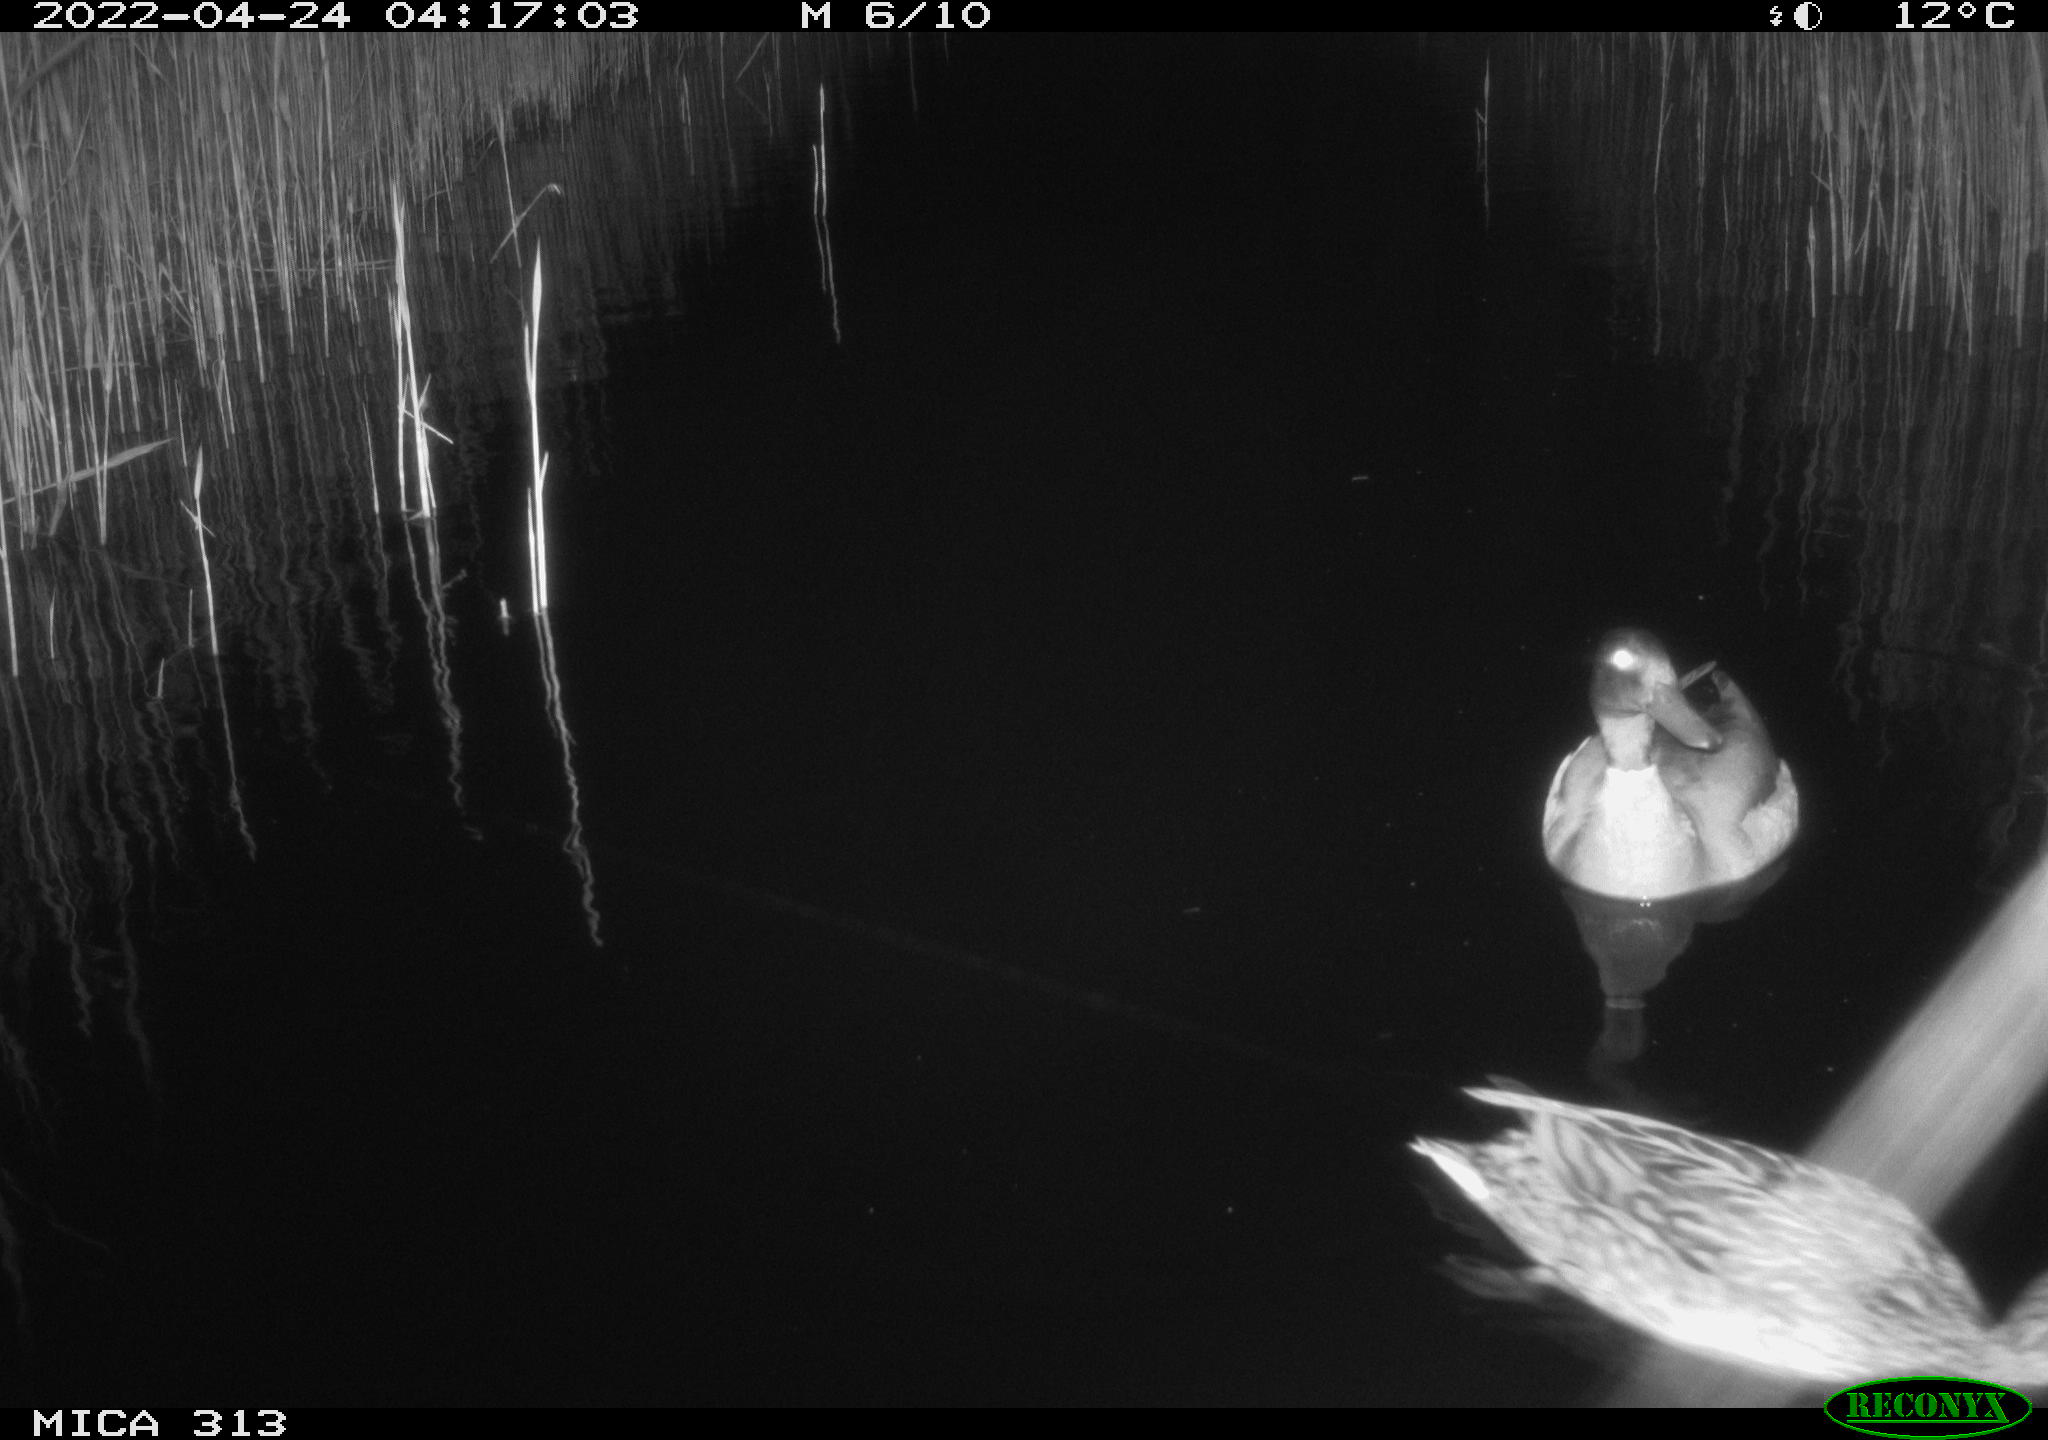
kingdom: Animalia
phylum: Chordata
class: Aves
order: Anseriformes
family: Anatidae
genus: Anas
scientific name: Anas platyrhynchos
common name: Mallard
